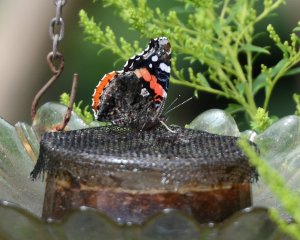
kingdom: Animalia
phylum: Arthropoda
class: Insecta
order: Lepidoptera
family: Nymphalidae
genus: Vanessa
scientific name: Vanessa atalanta
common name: Red Admiral
